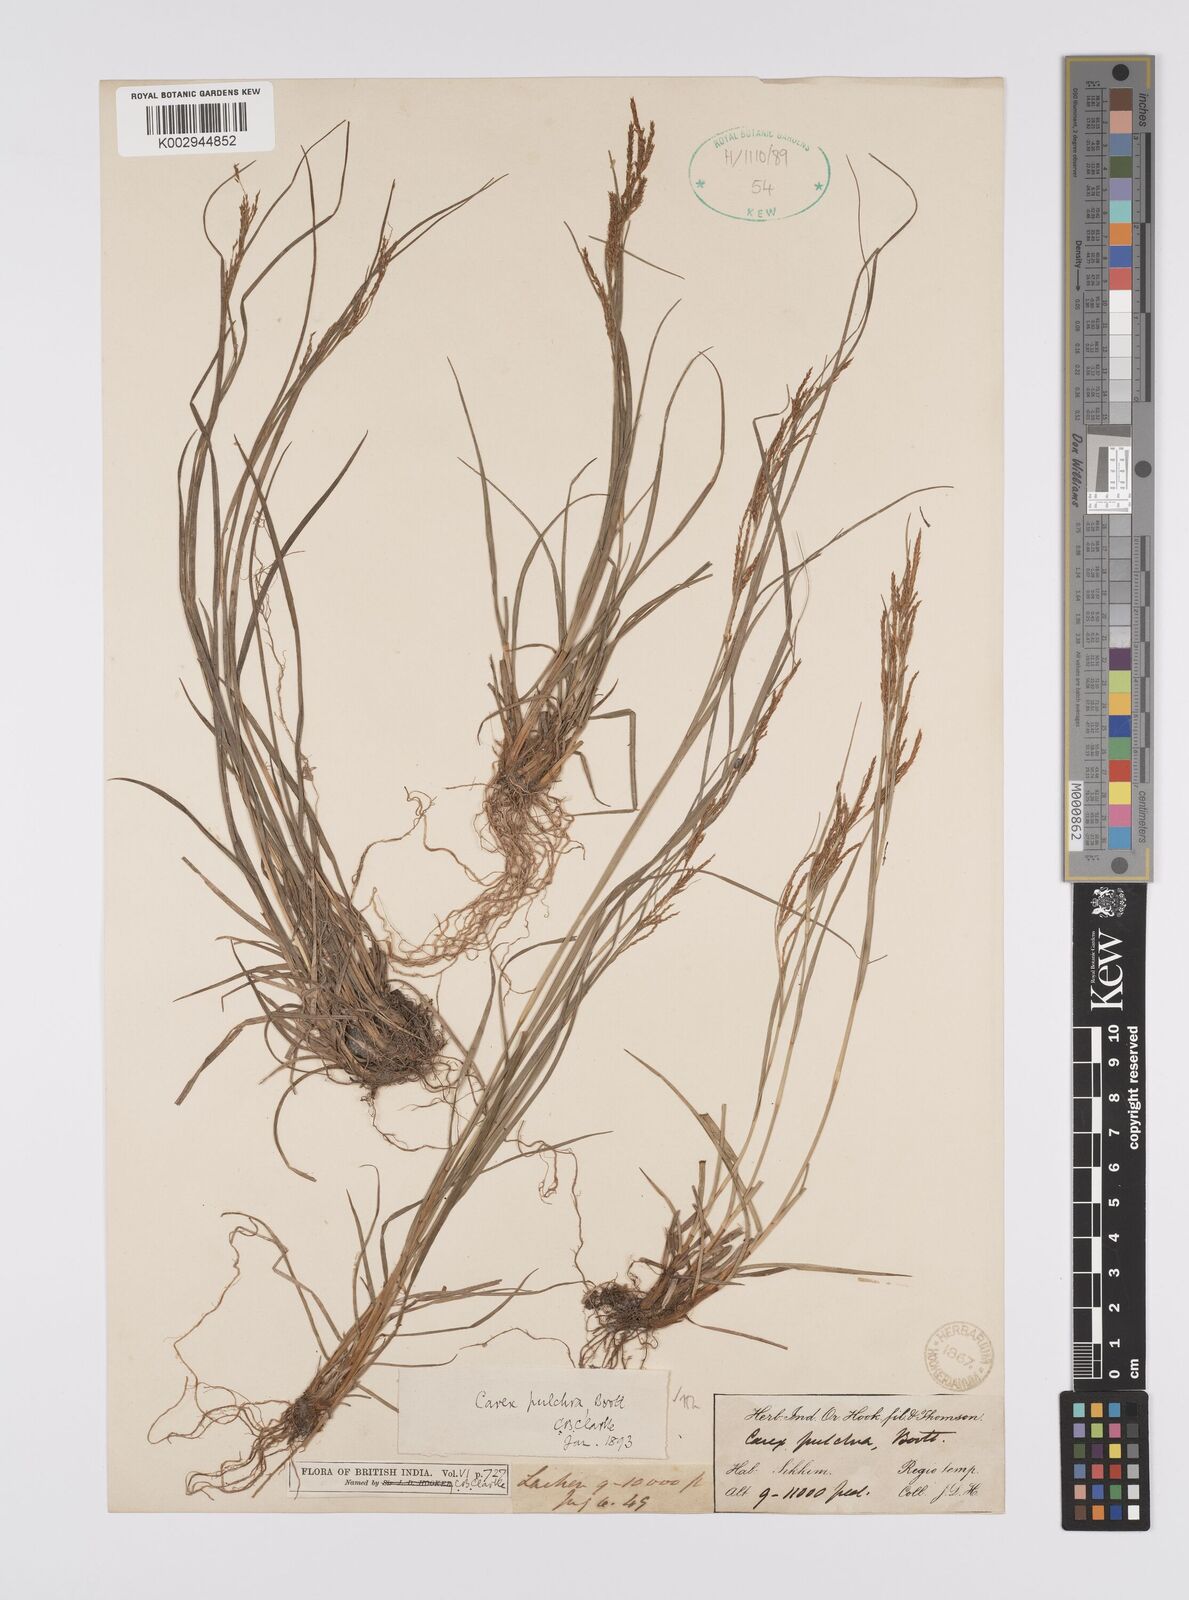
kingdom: Plantae
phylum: Tracheophyta
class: Liliopsida
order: Poales
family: Cyperaceae
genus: Carex
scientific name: Carex pulchra
